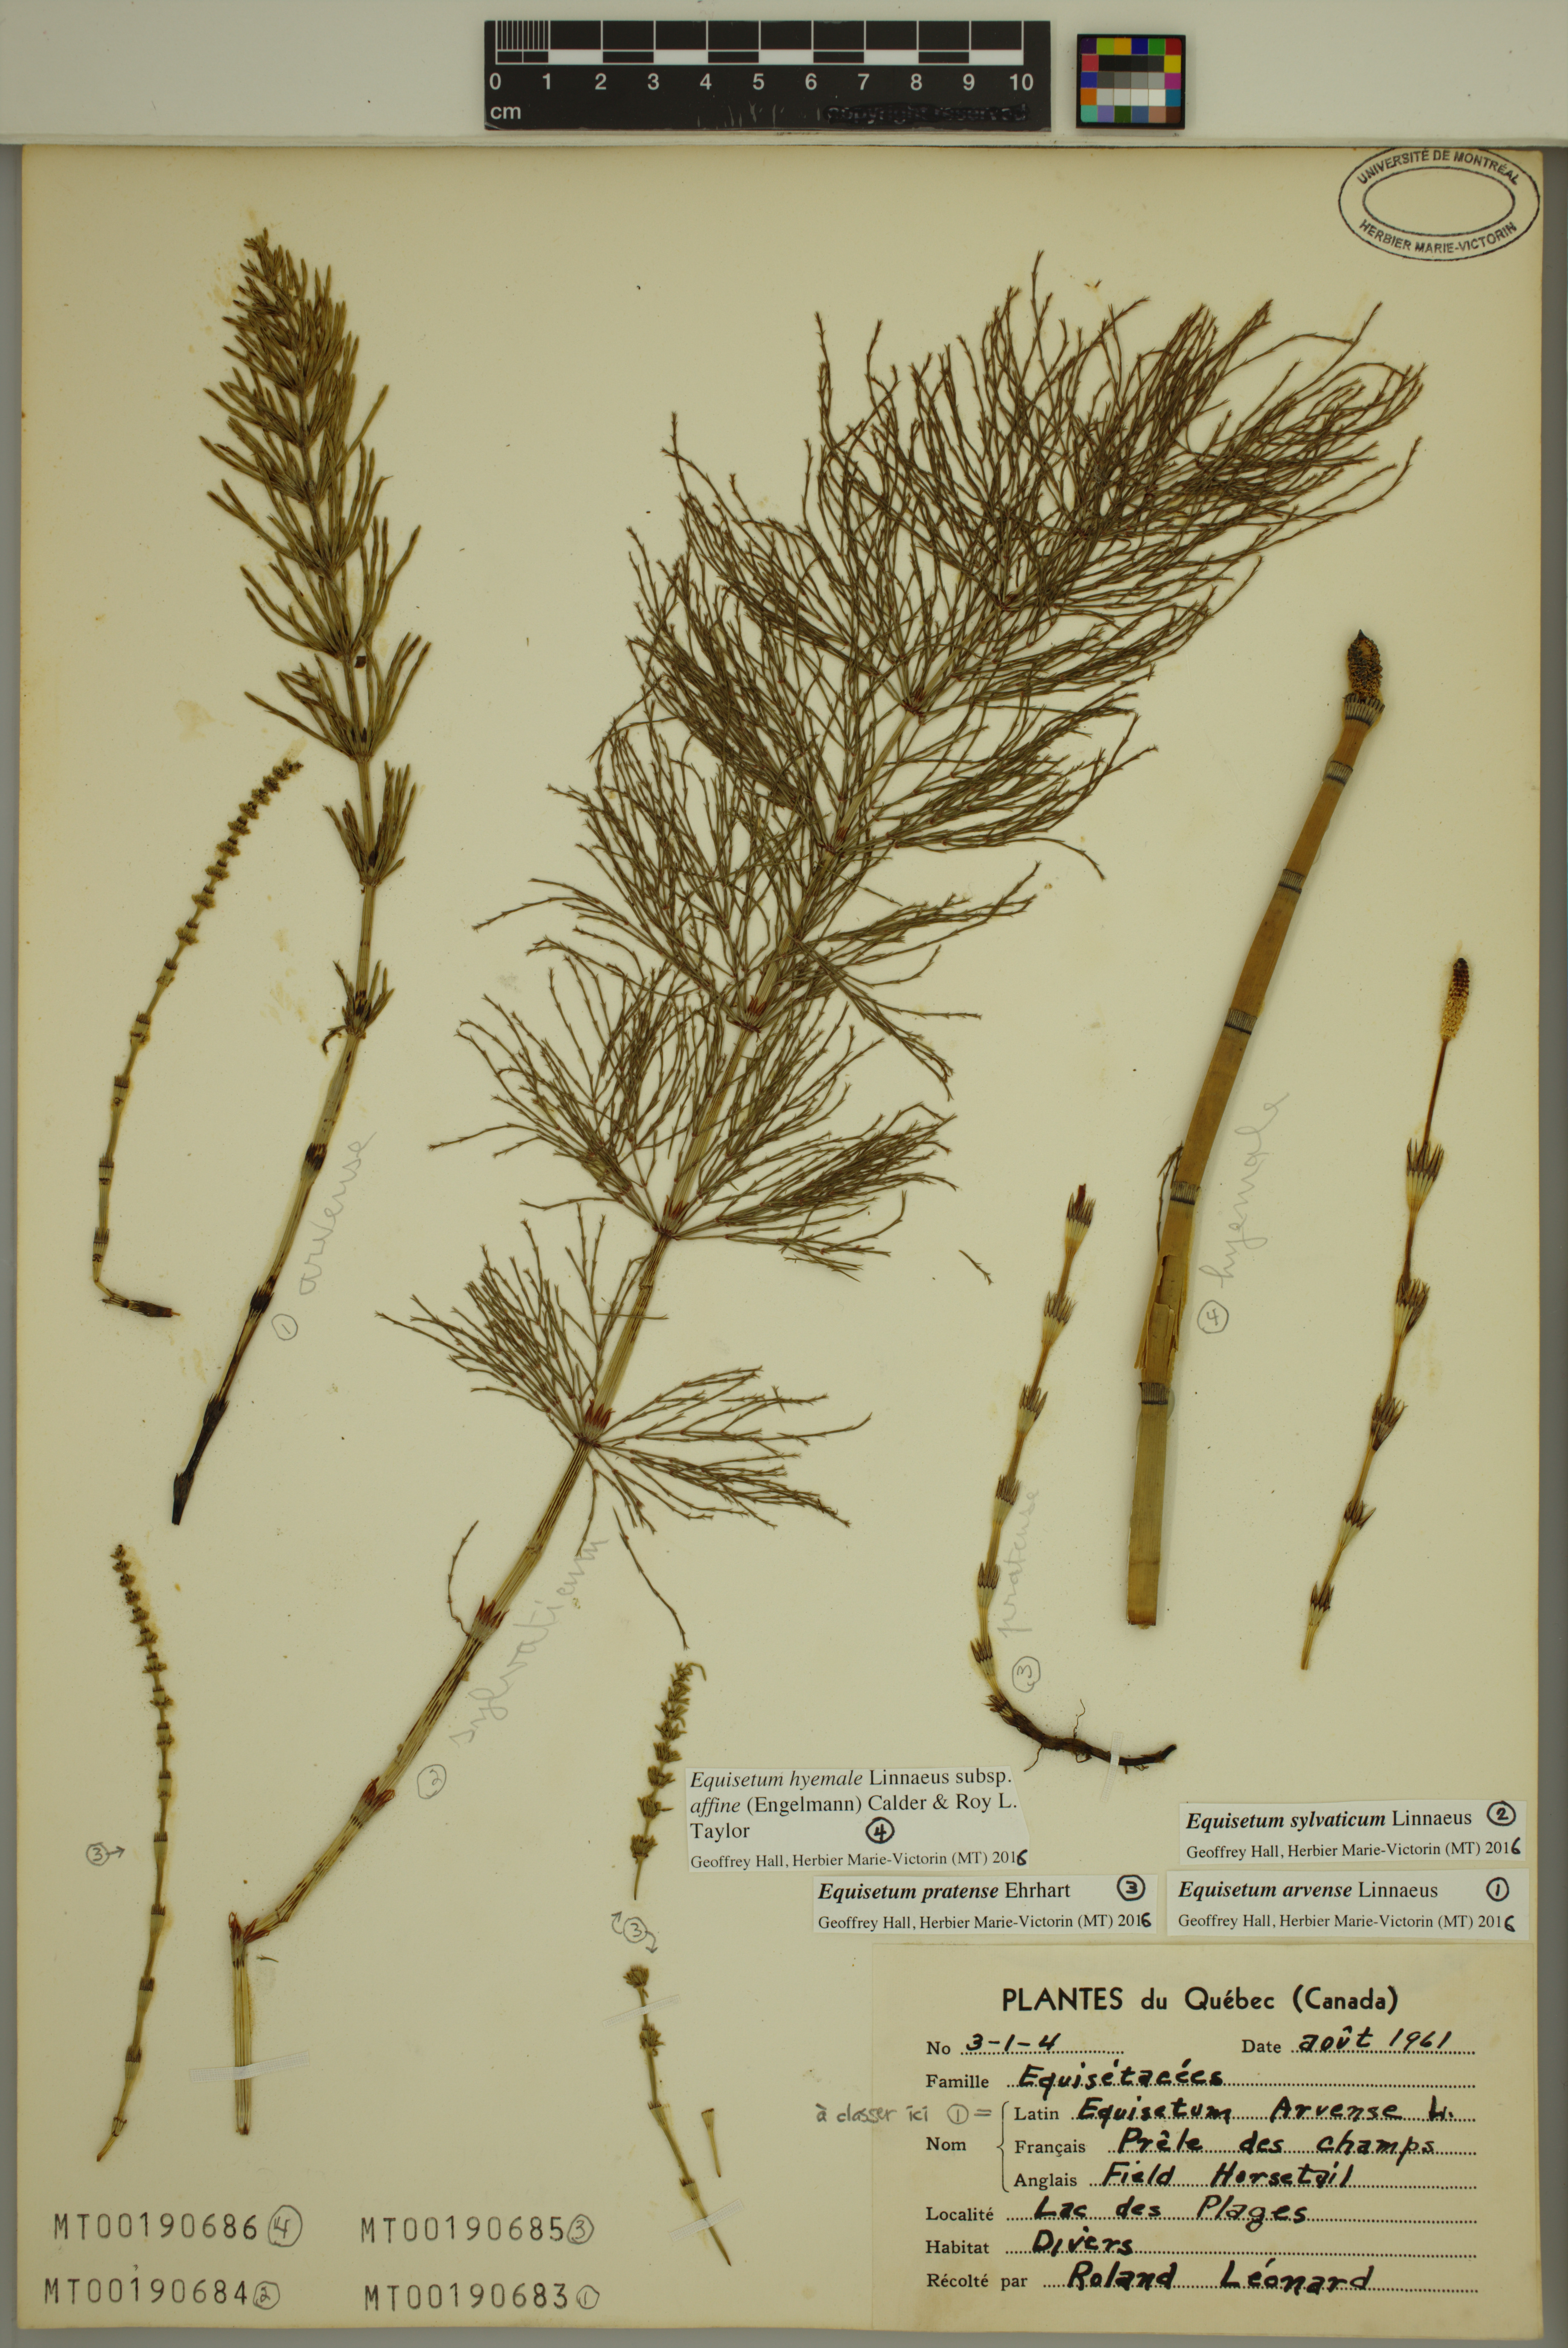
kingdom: Plantae
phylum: Tracheophyta
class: Polypodiopsida
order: Equisetales
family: Equisetaceae
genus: Equisetum
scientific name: Equisetum arvense
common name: Field horsetail
